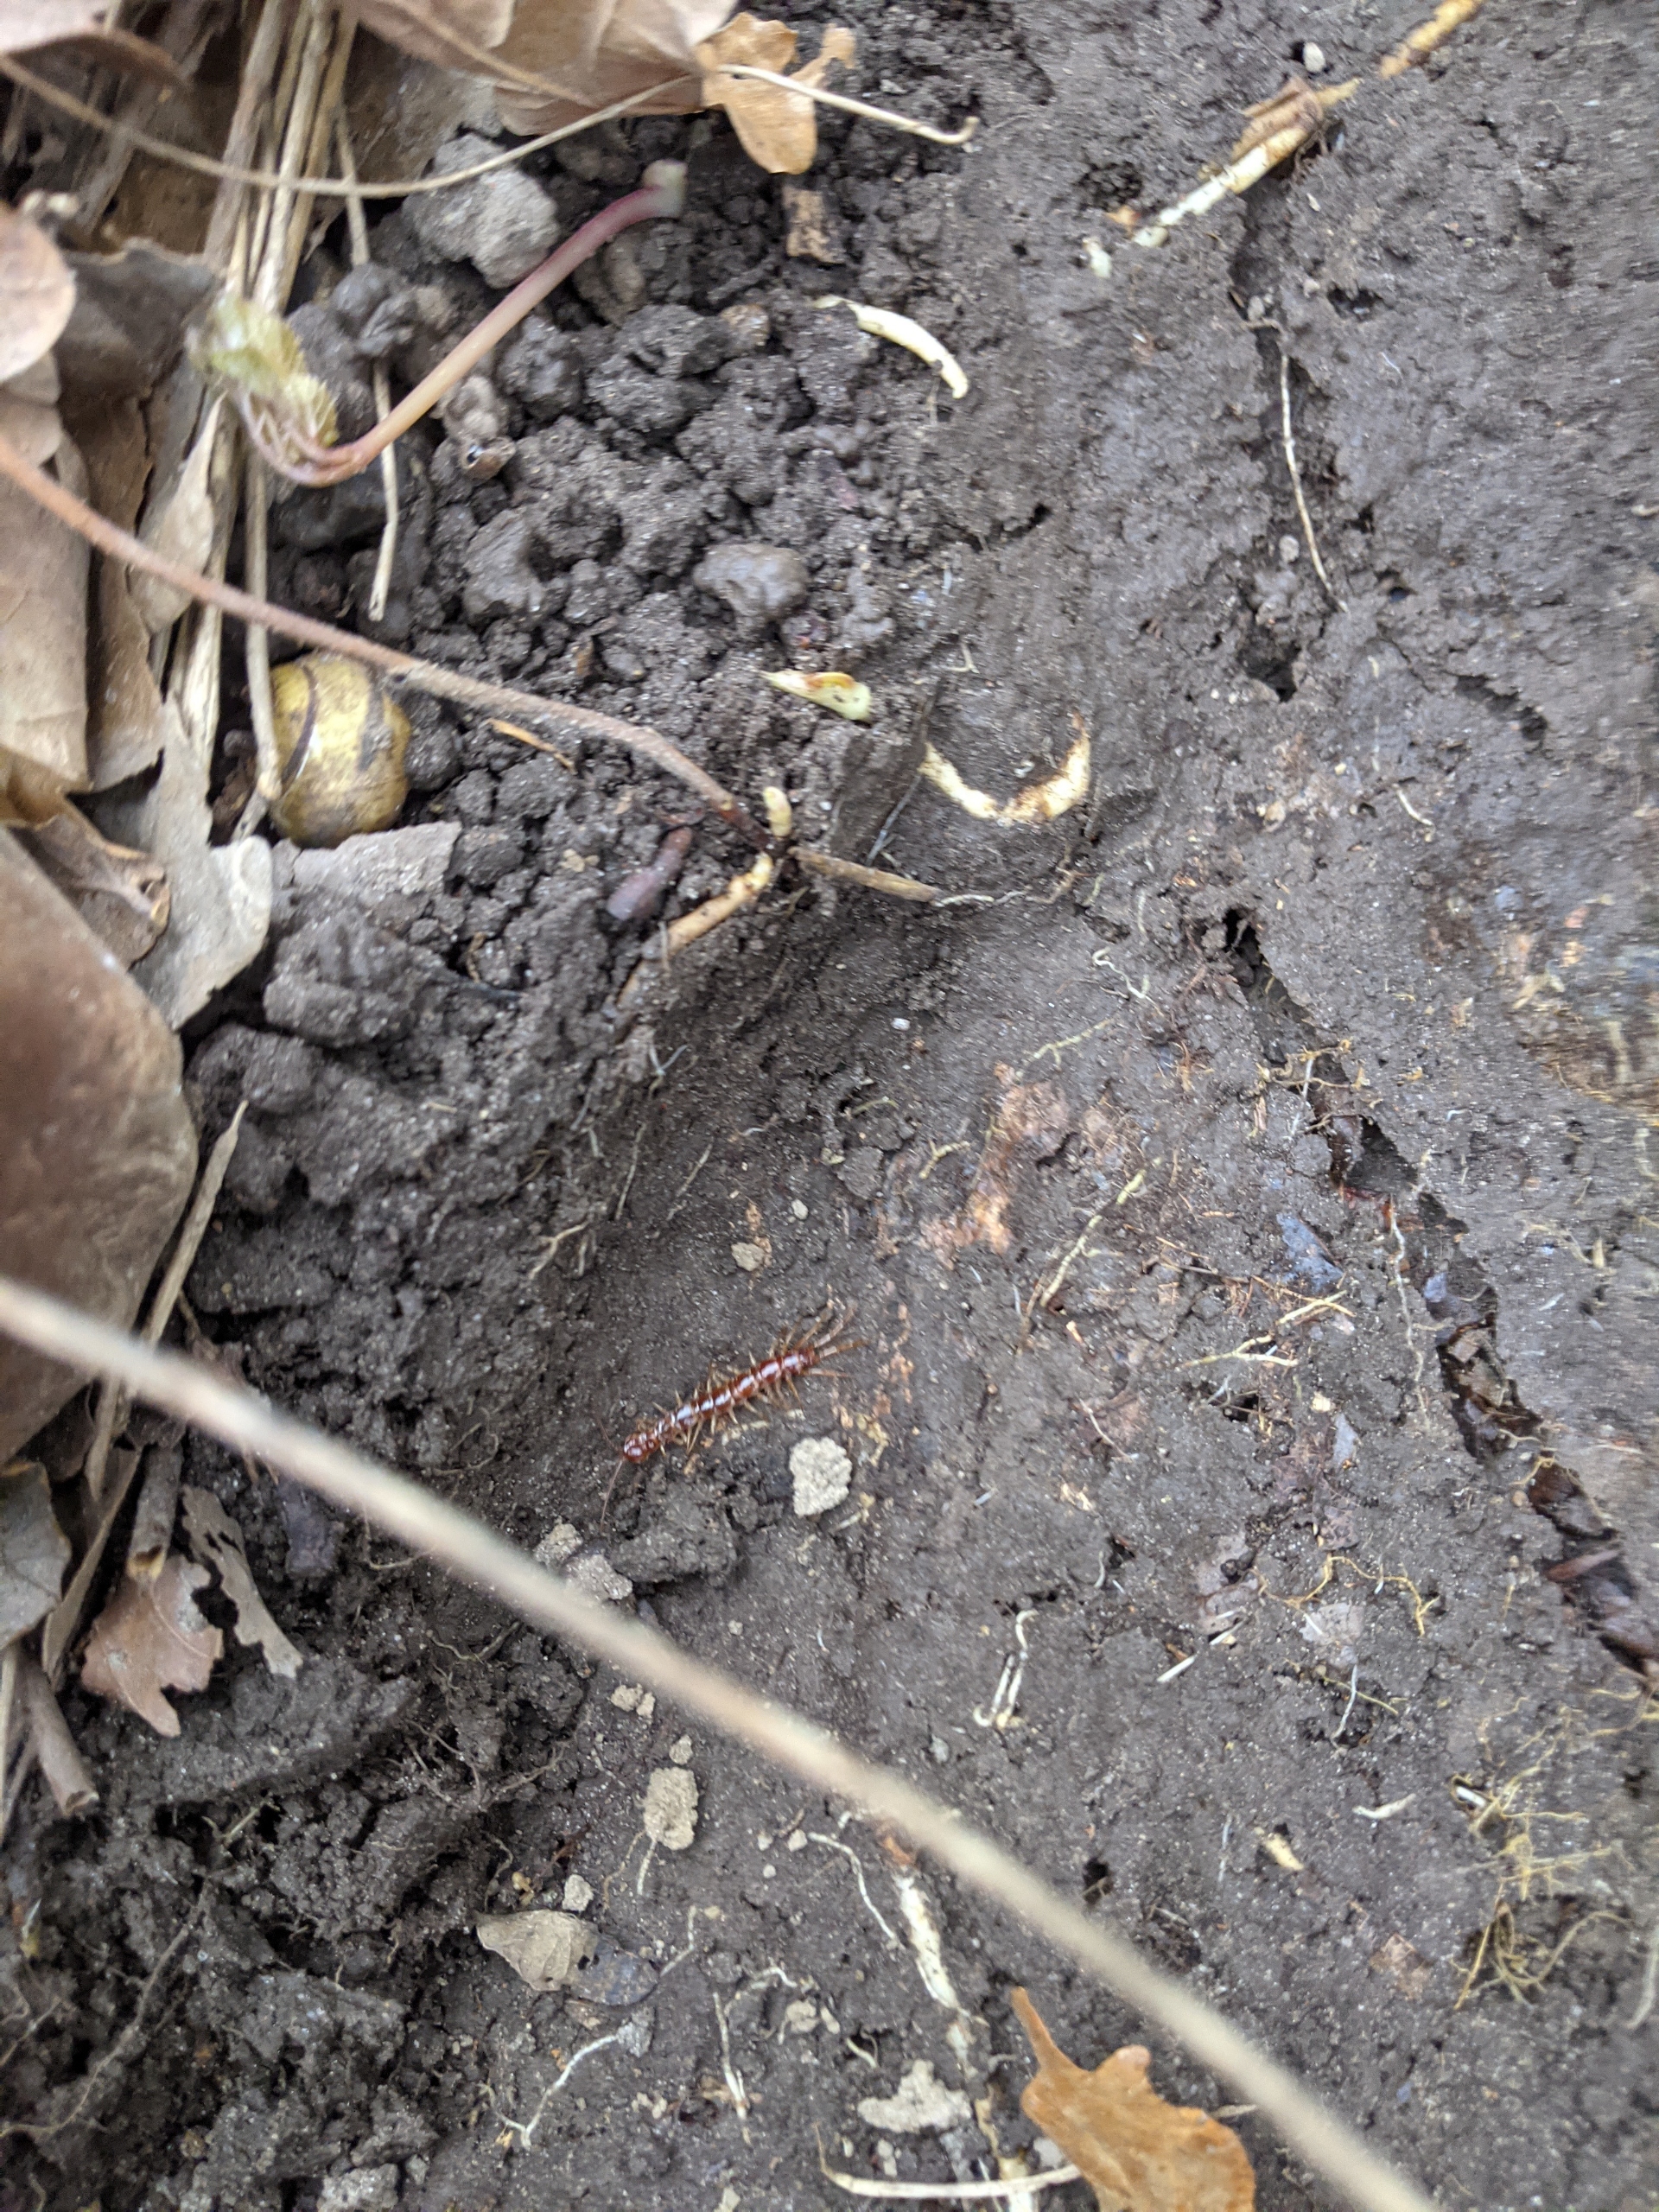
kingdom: Animalia
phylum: Arthropoda
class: Chilopoda
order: Lithobiomorpha
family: Lithobiidae
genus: Lithobius
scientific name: Lithobius forficatus
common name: Stenskolopender
